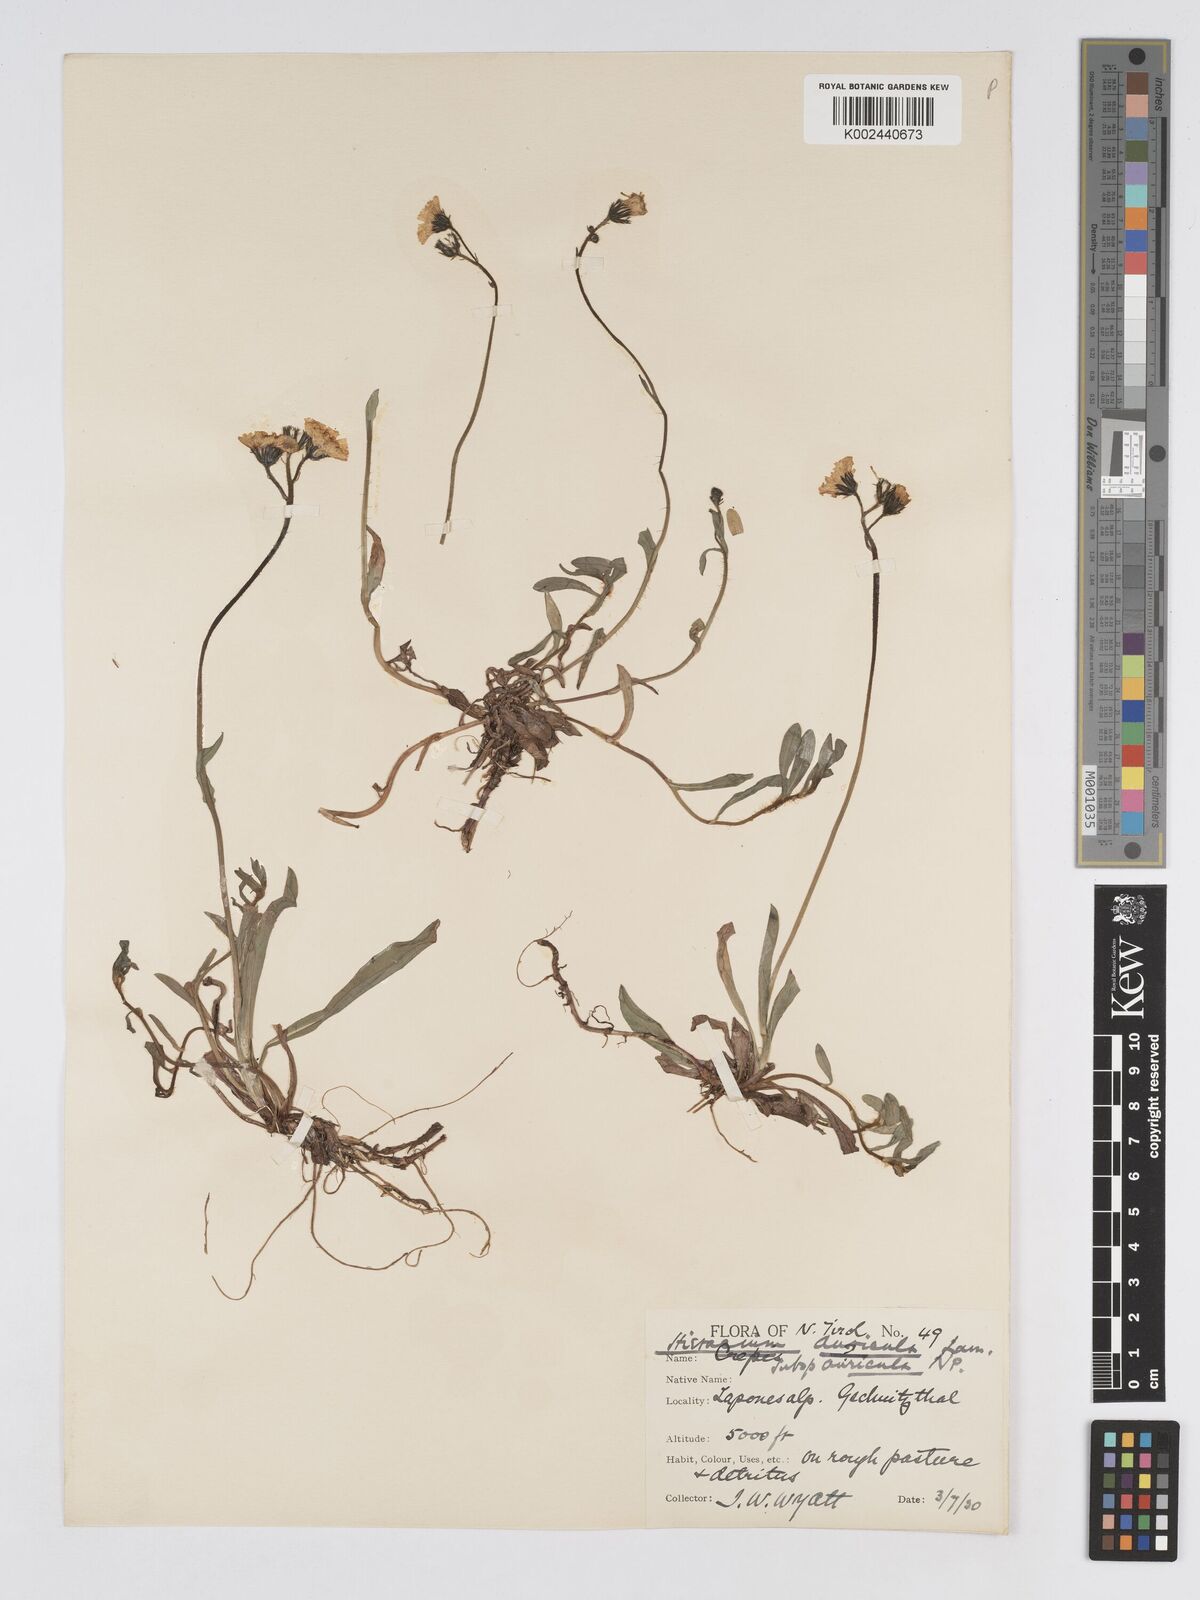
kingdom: Plantae
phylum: Tracheophyta
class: Magnoliopsida
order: Asterales
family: Asteraceae
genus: Pilosella
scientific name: Pilosella floribunda
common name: Glaucous hawkweed
